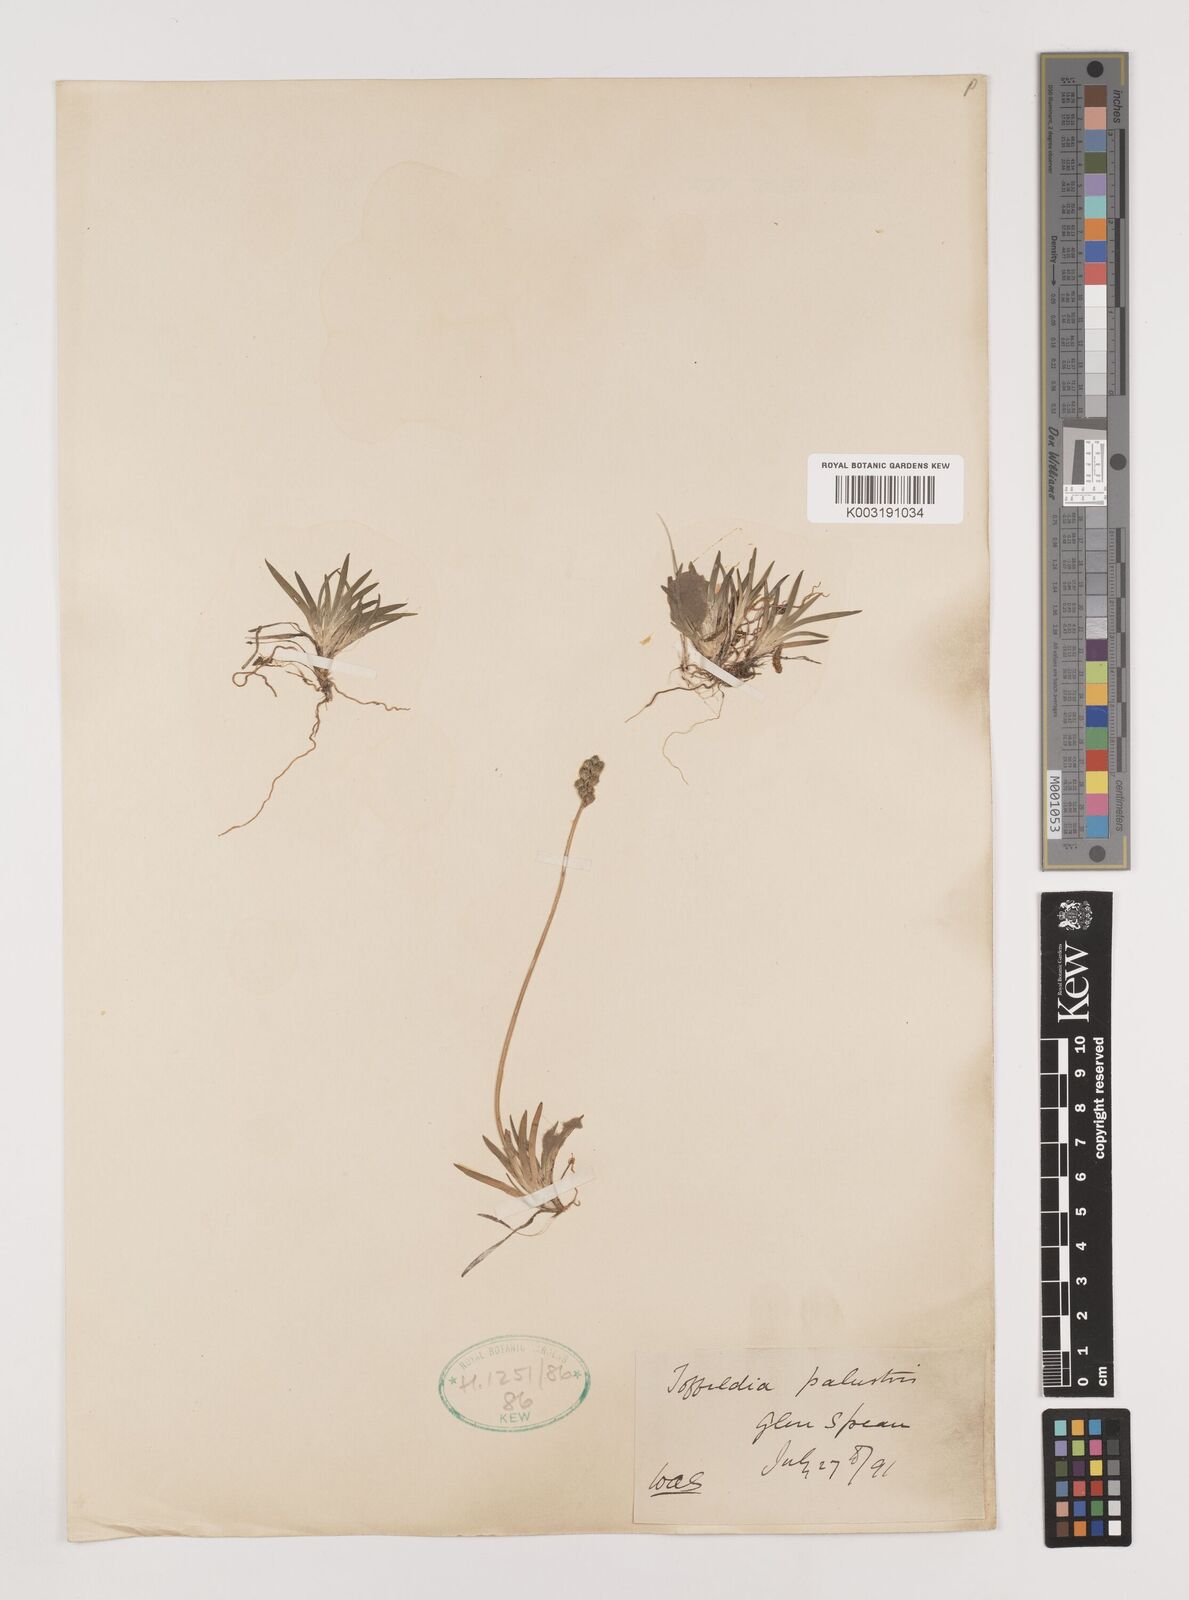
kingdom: Plantae
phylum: Tracheophyta
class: Liliopsida
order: Alismatales
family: Tofieldiaceae
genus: Tofieldia
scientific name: Tofieldia pusilla
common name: Scottish false asphodel
